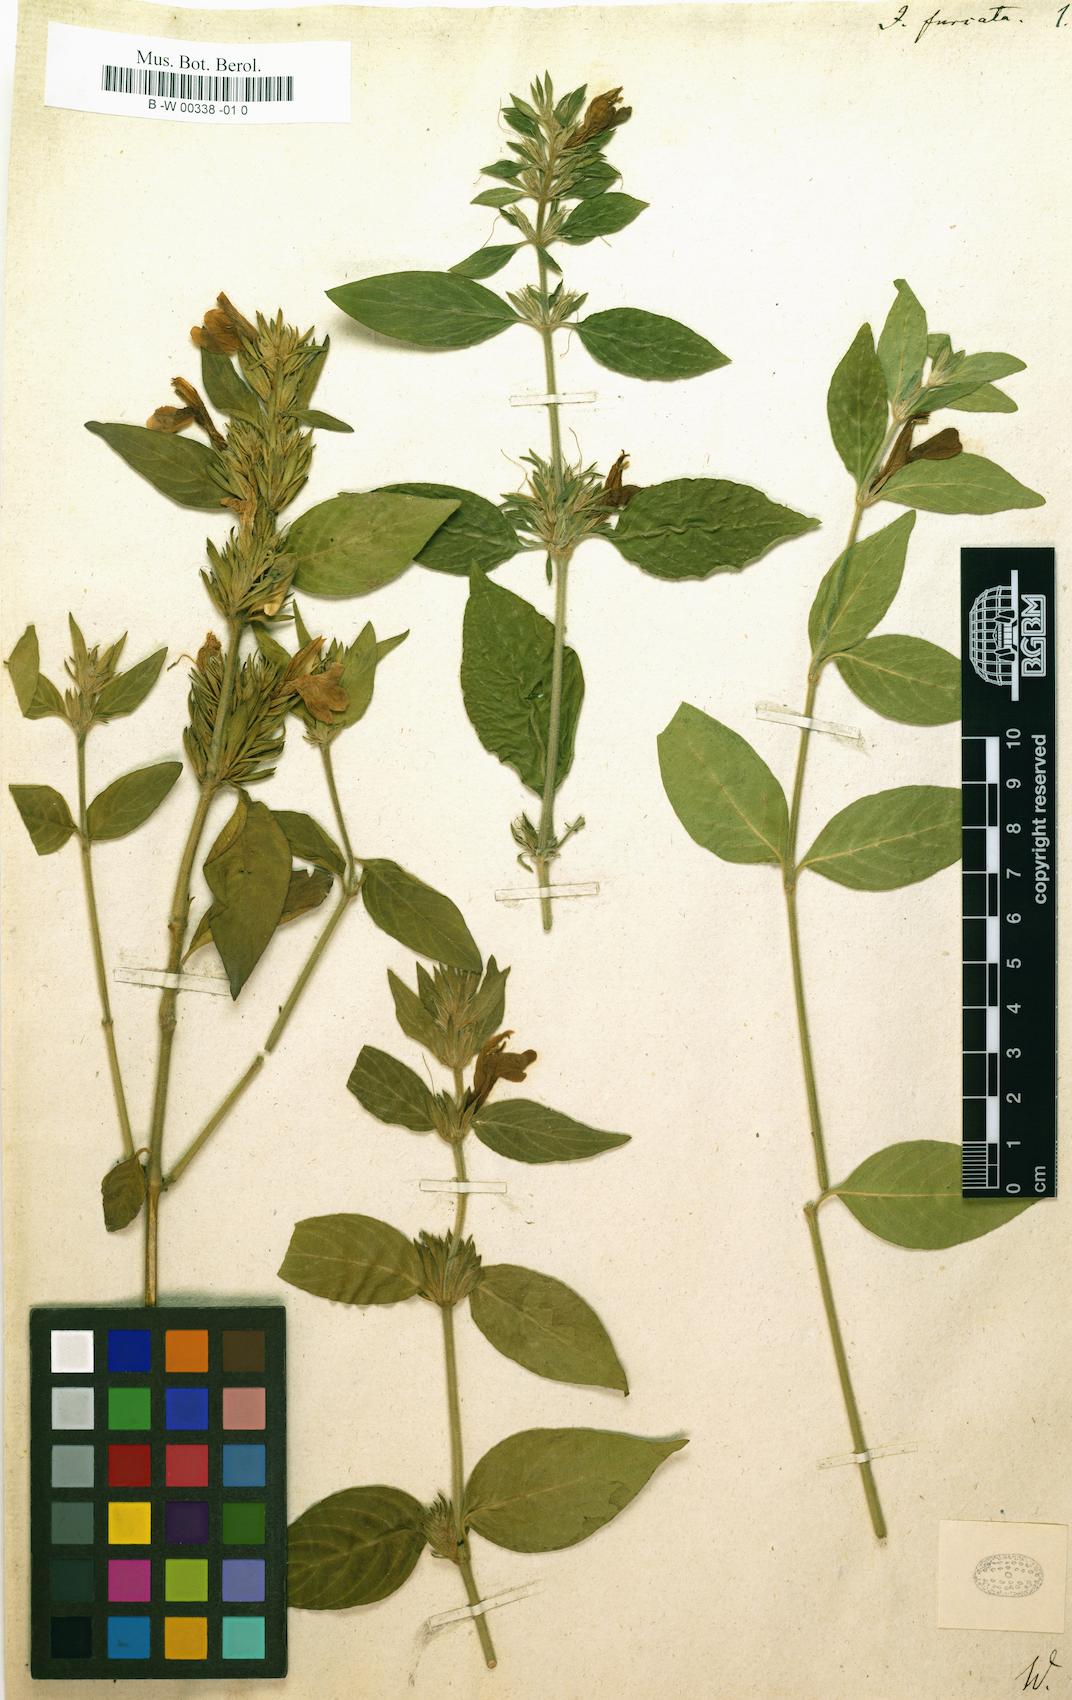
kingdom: Plantae
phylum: Tracheophyta
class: Magnoliopsida
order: Lamiales
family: Acanthaceae
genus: Ruellia
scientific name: Ruellia paniculata
